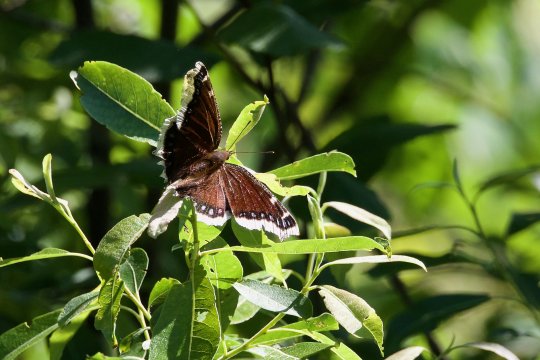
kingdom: Animalia
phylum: Arthropoda
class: Insecta
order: Lepidoptera
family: Nymphalidae
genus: Nymphalis
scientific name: Nymphalis antiopa
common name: Mourning Cloak
